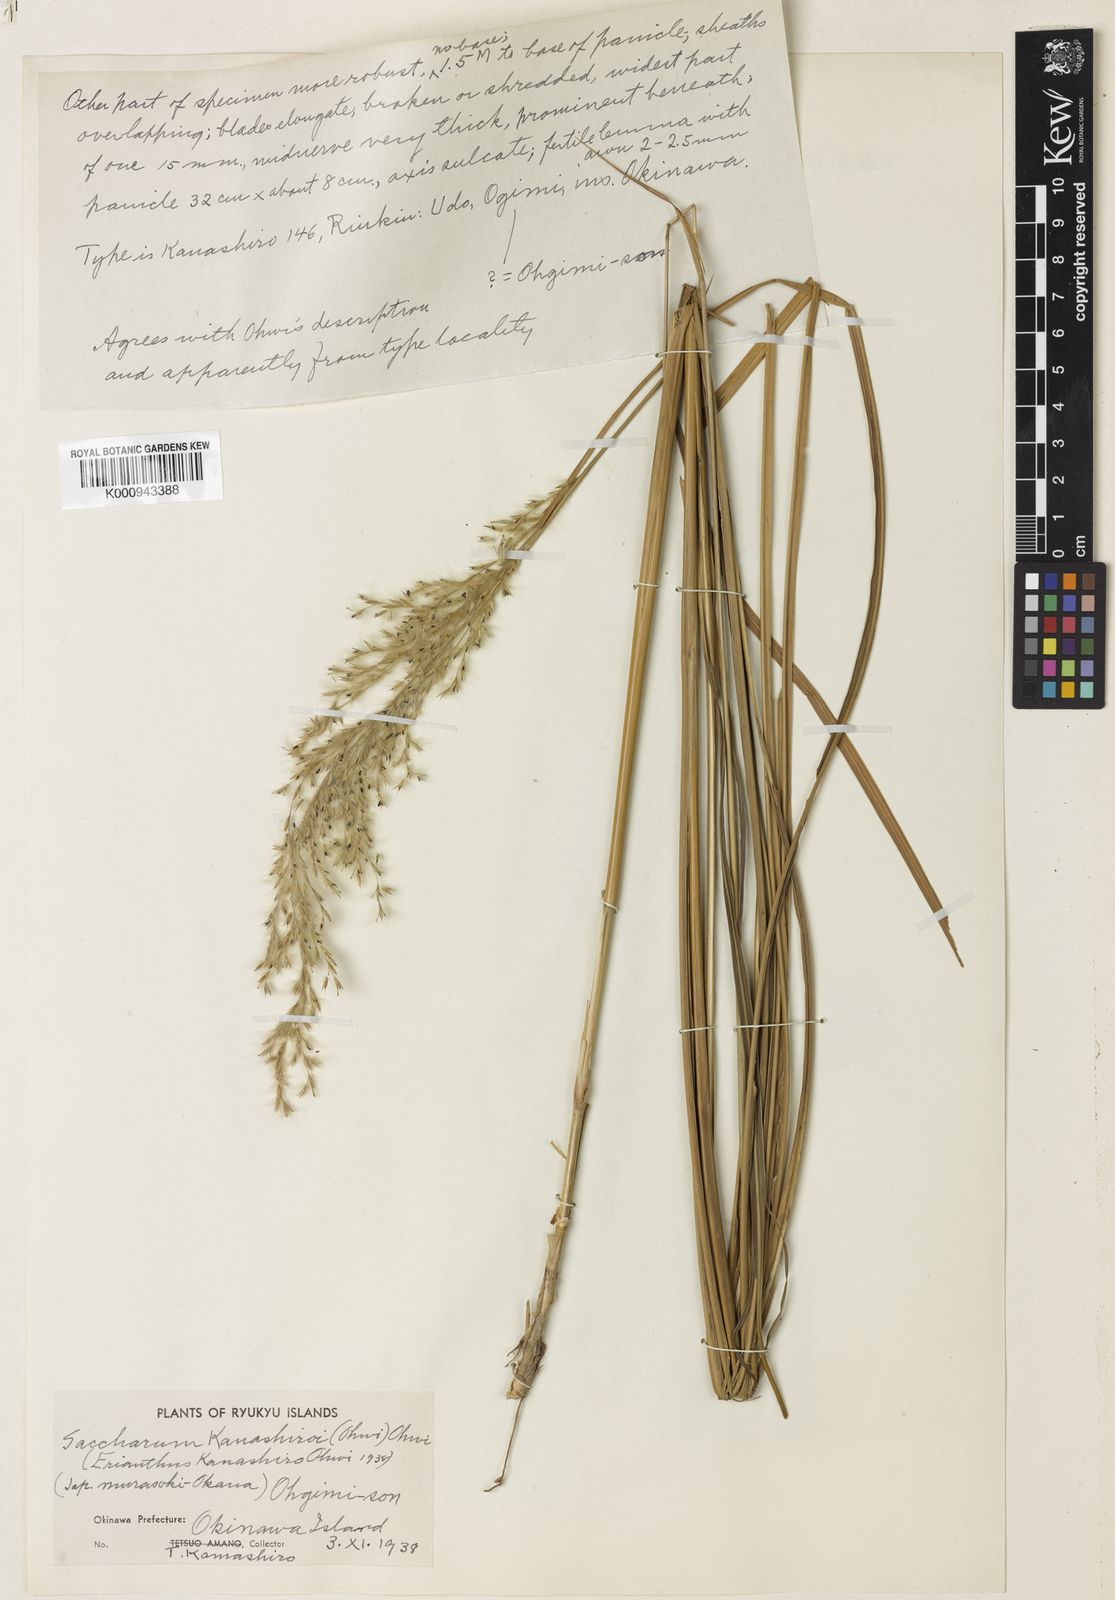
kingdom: Plantae
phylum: Tracheophyta
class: Liliopsida
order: Poales
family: Poaceae
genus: Tripidium
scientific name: Tripidium kanashiroi
